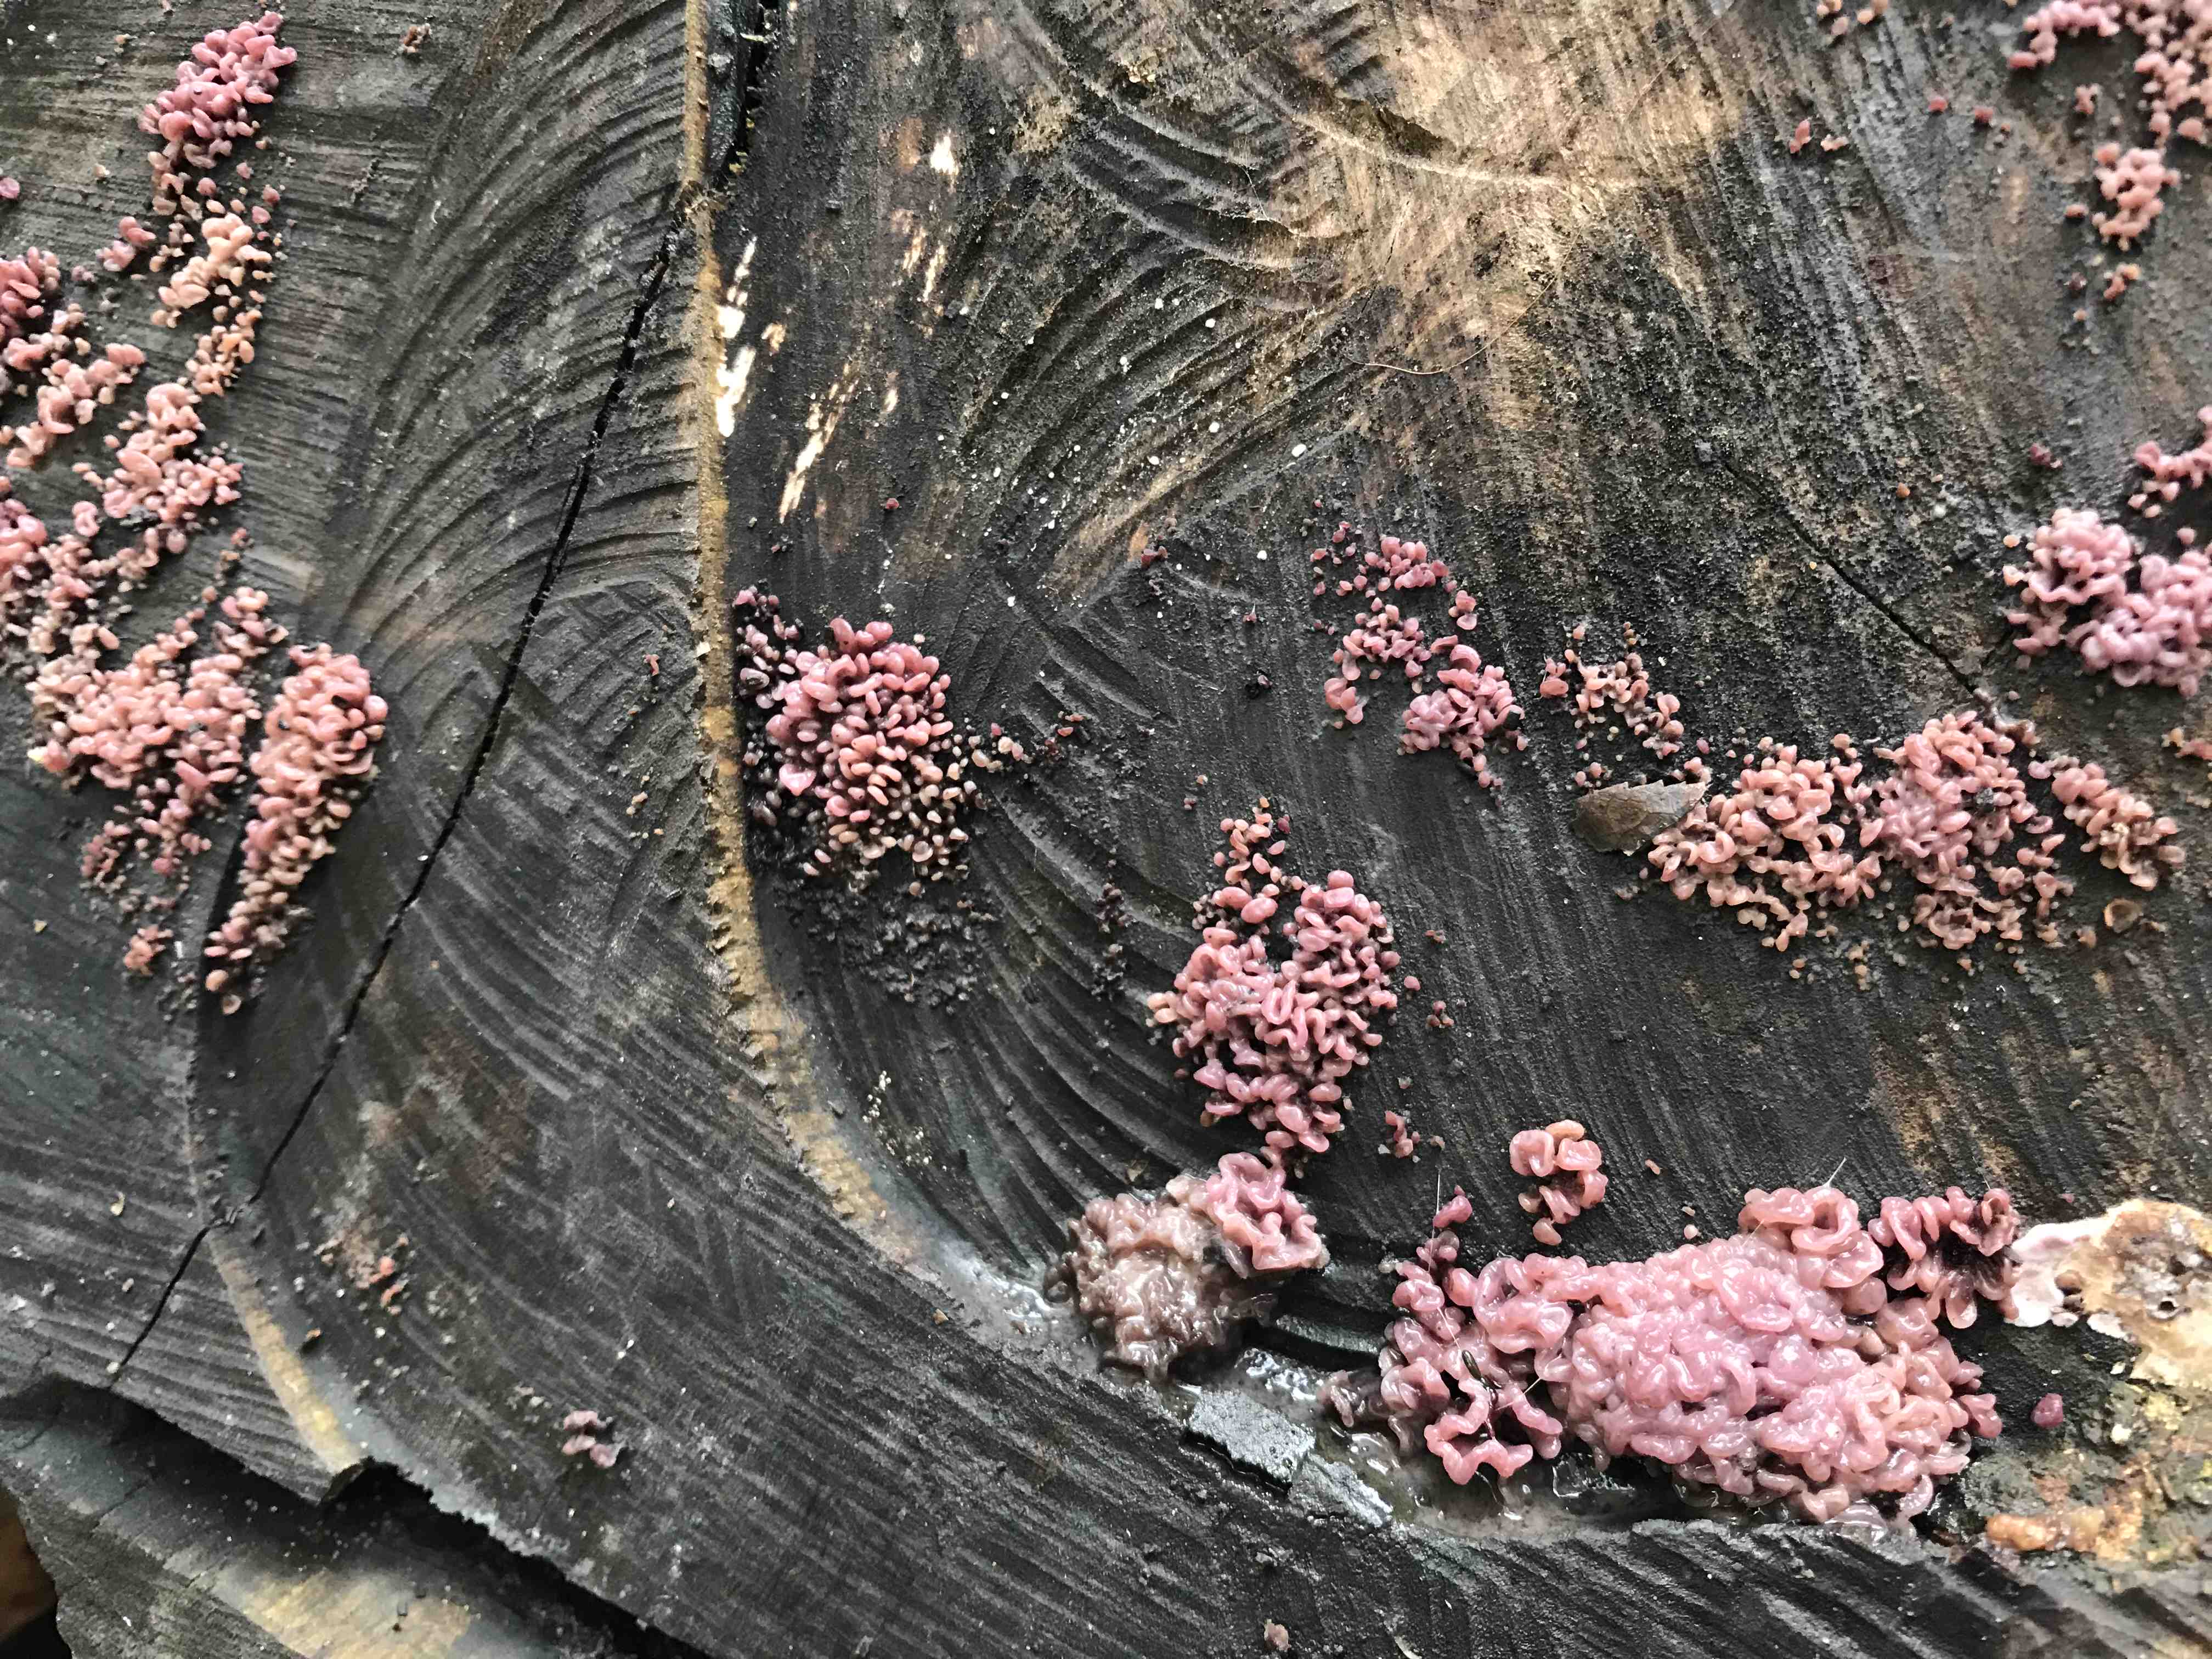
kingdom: Fungi
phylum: Ascomycota
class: Leotiomycetes
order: Helotiales
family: Gelatinodiscaceae
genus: Ascocoryne
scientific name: Ascocoryne sarcoides
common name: rødlilla sejskive
